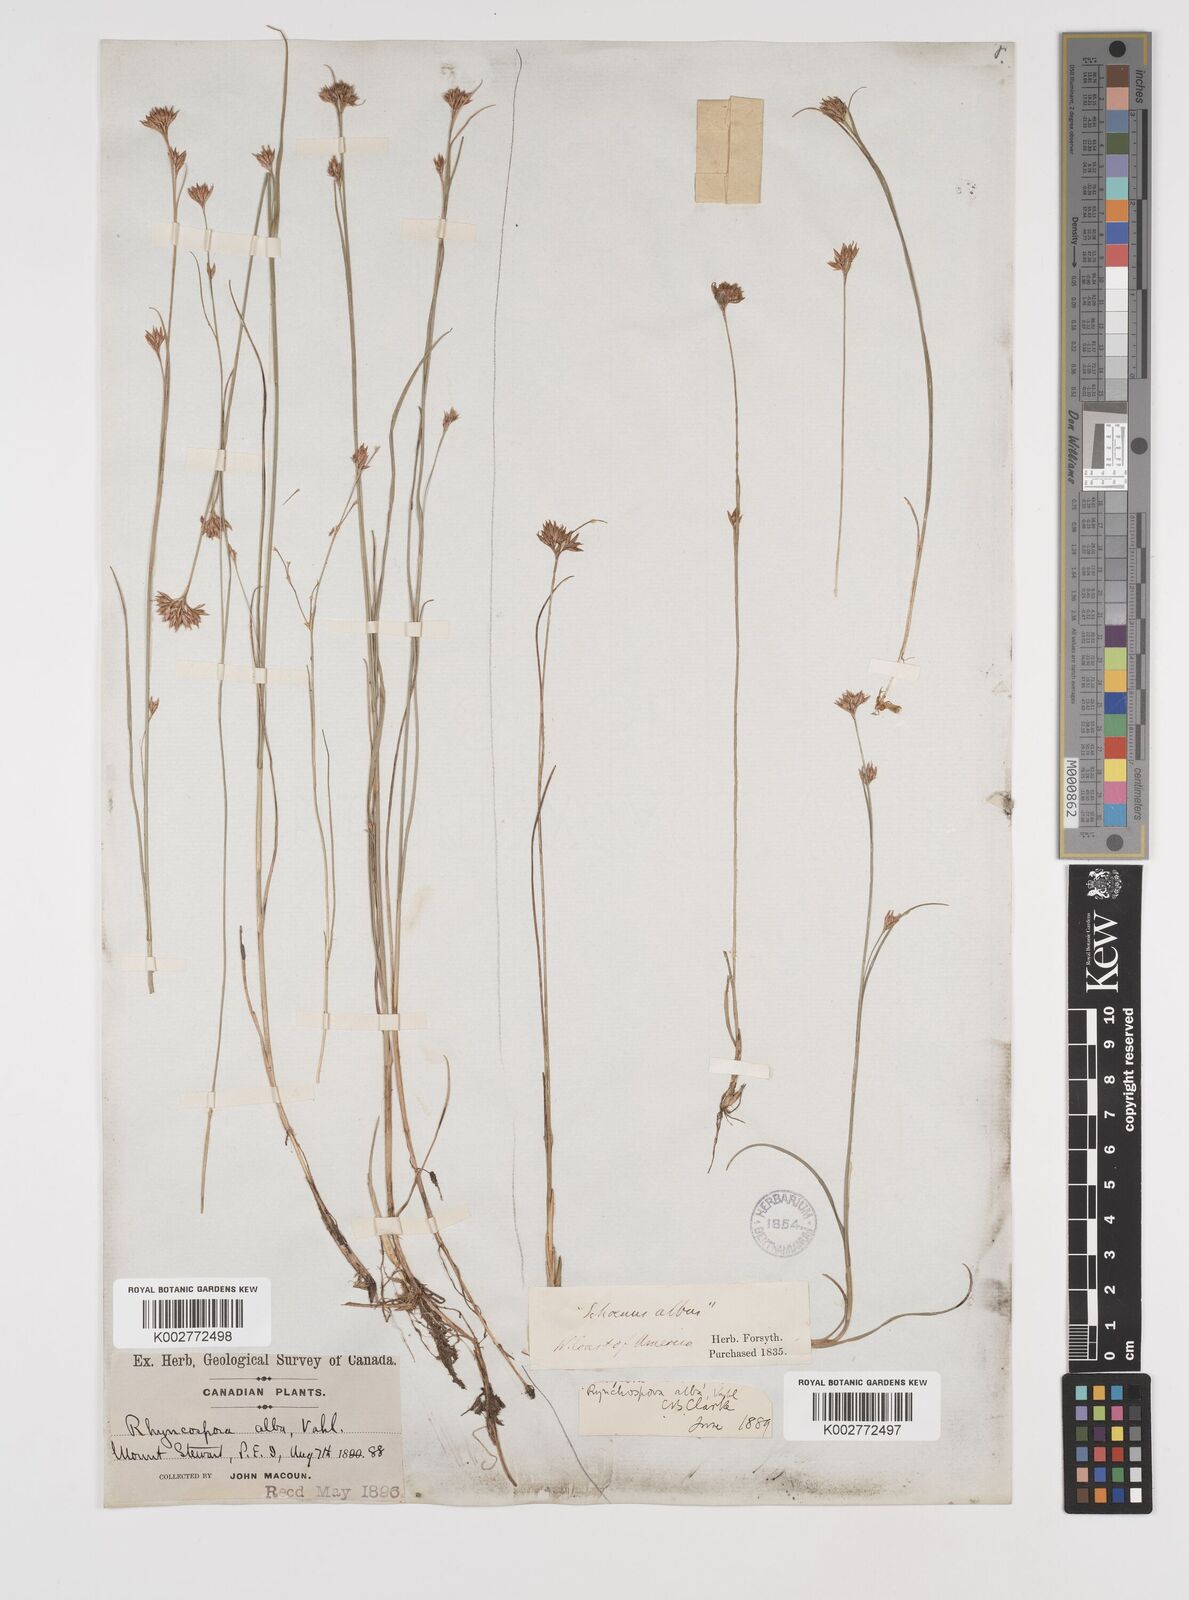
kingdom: Plantae
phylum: Tracheophyta
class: Liliopsida
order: Poales
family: Cyperaceae
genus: Rhynchospora
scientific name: Rhynchospora alba
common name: White beak-sedge
